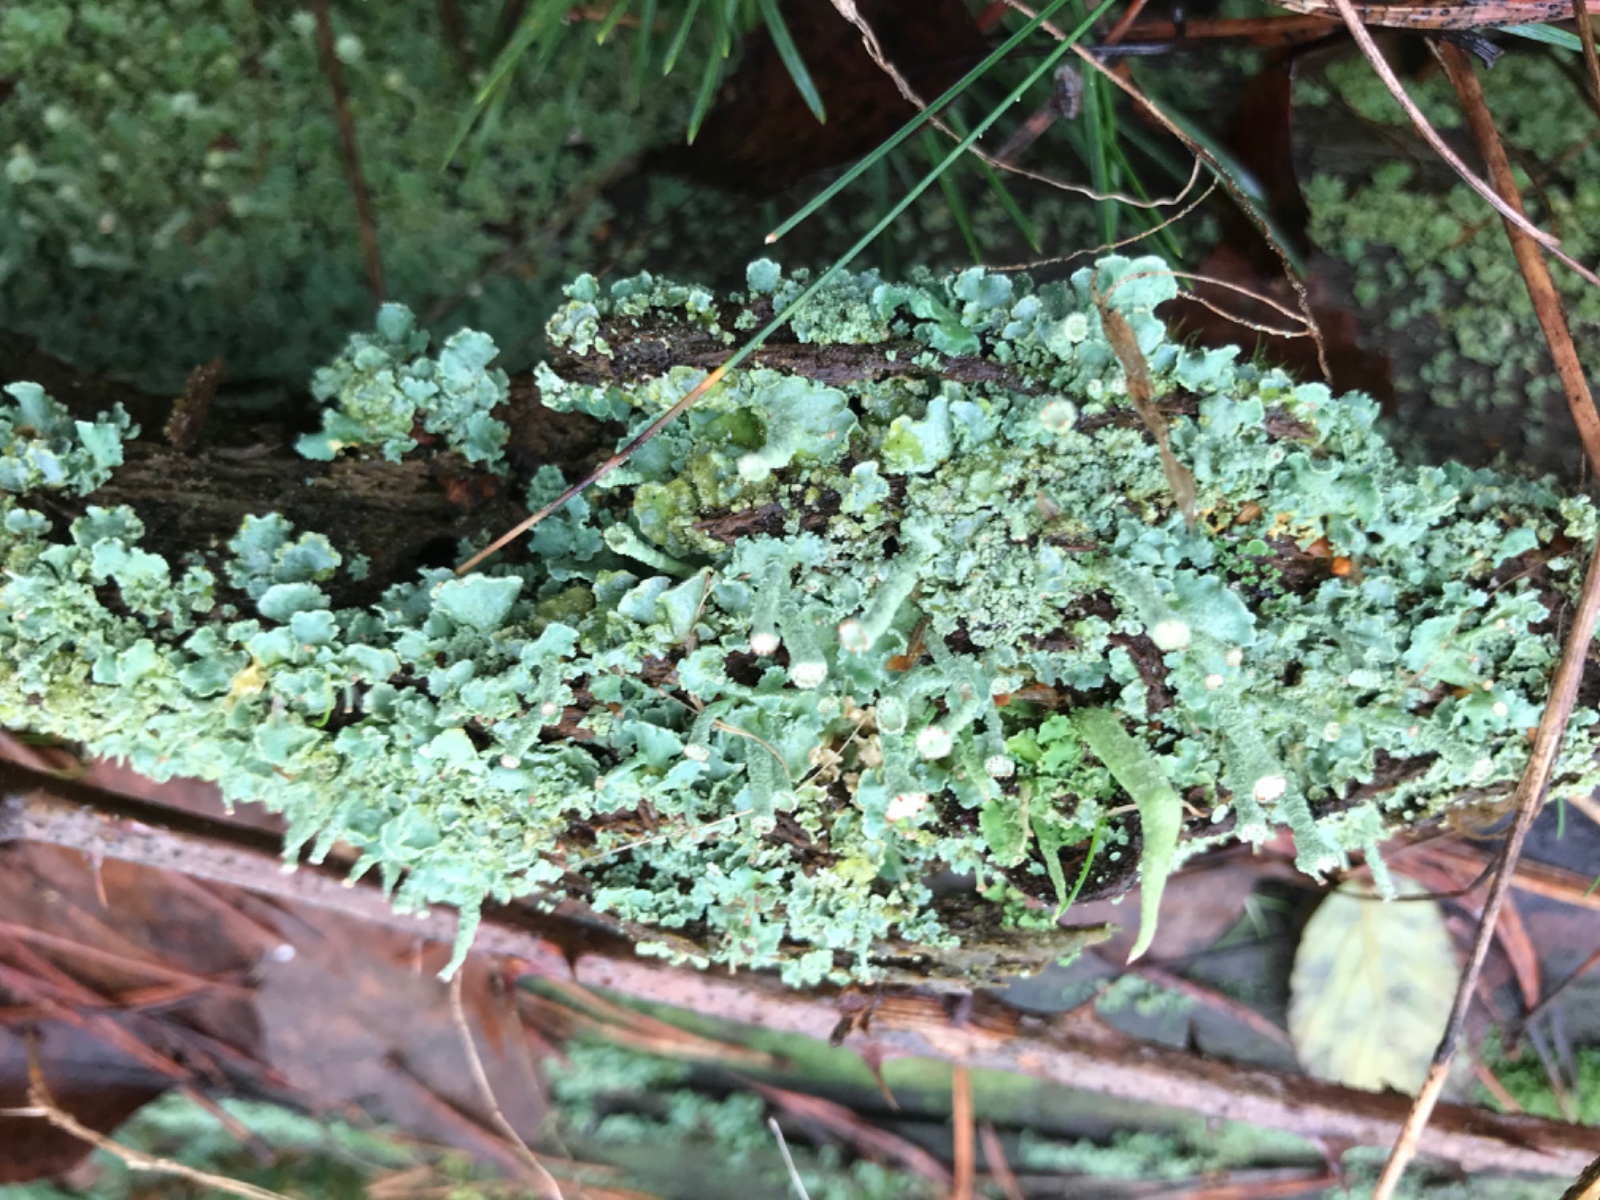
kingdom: Fungi
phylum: Ascomycota
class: Lecanoromycetes
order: Lecanorales
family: Cladoniaceae
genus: Cladonia
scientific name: Cladonia digitata
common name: finger-bægerlav
